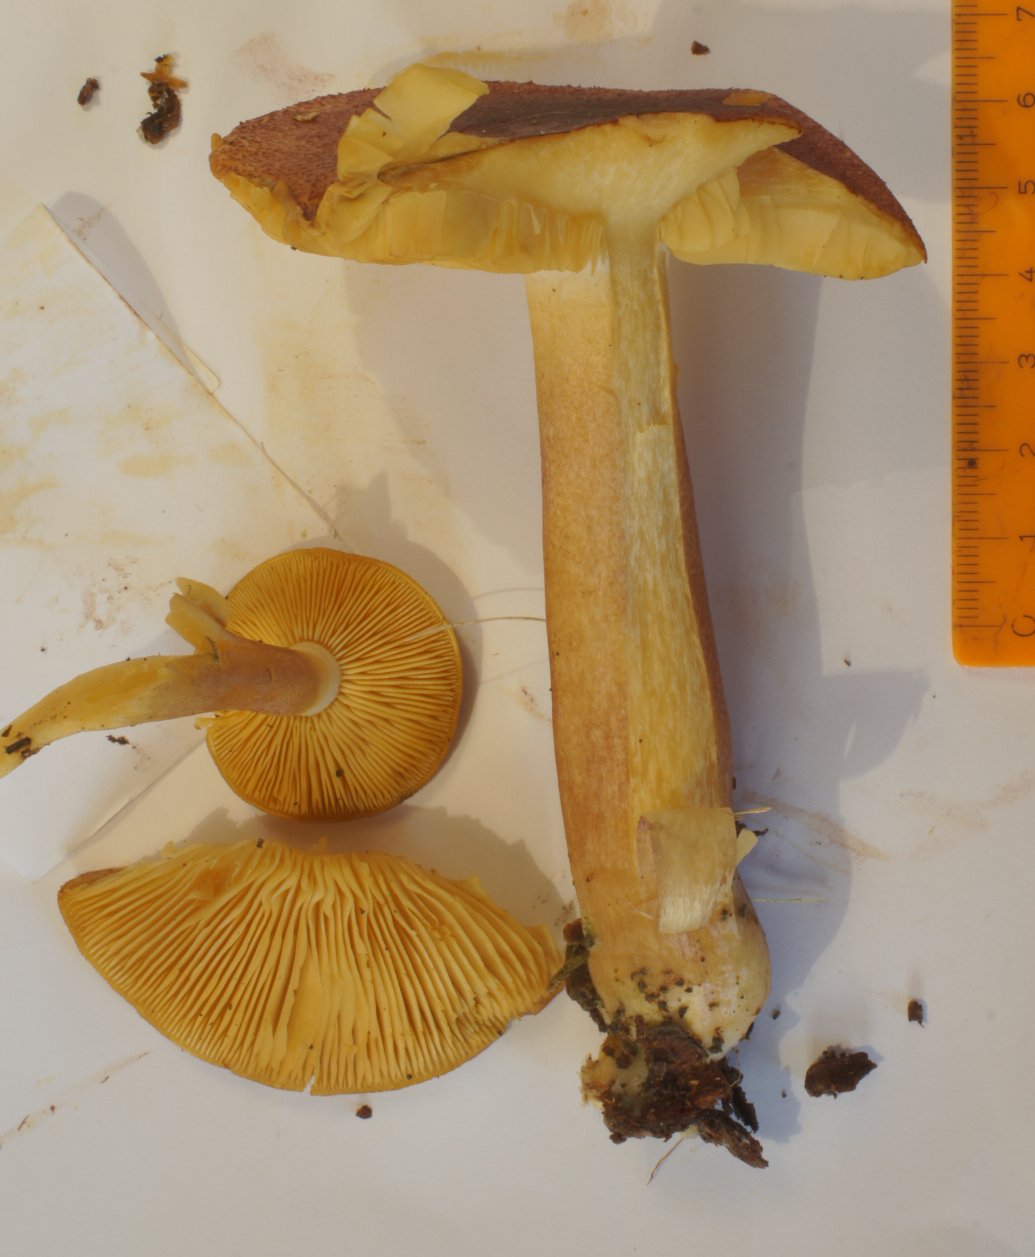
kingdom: Fungi
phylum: Basidiomycota
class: Agaricomycetes
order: Agaricales
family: Tricholomataceae
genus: Tricholomopsis
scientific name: Tricholomopsis rutilans
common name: purpur-væbnerhat
